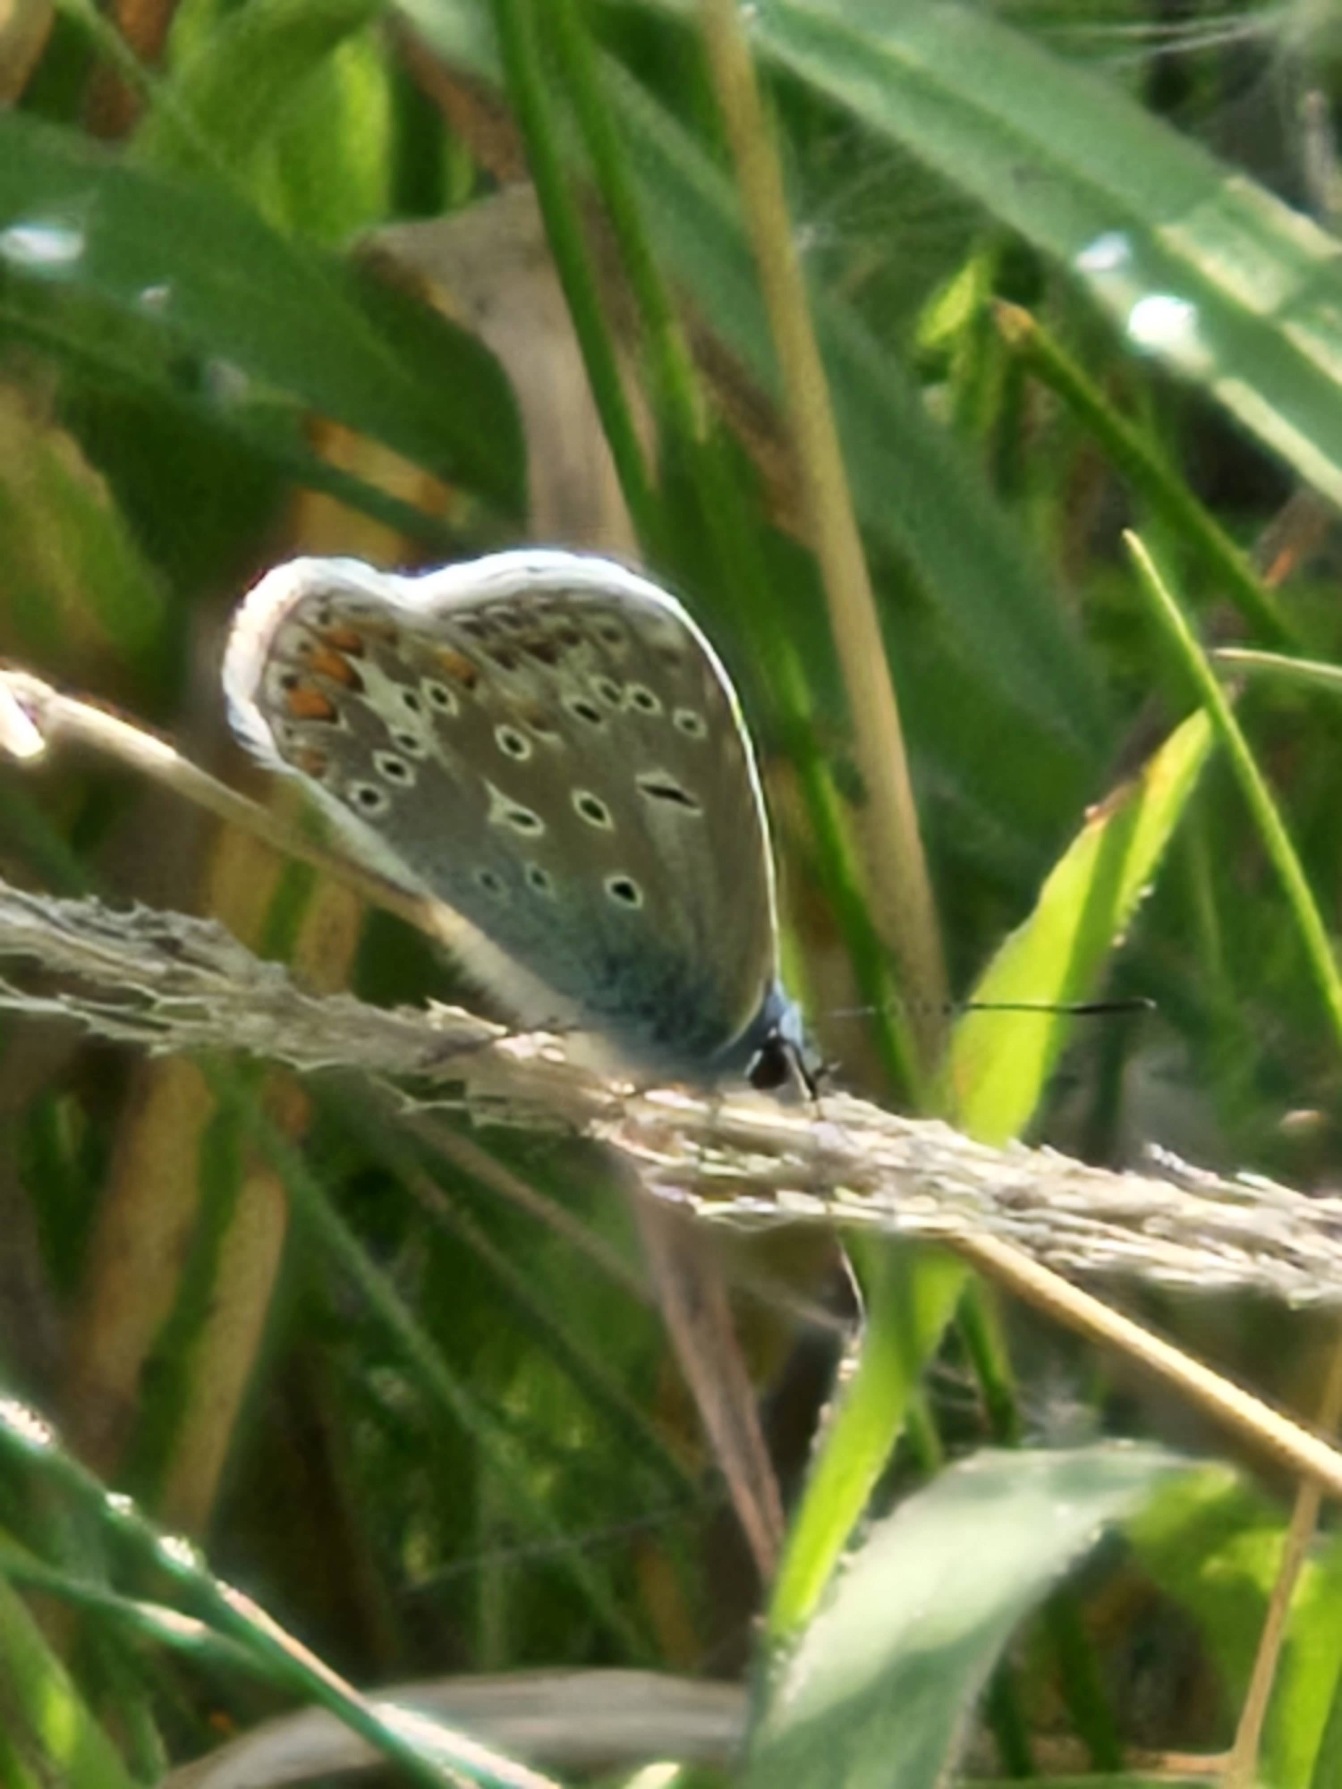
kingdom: Animalia
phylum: Arthropoda
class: Insecta
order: Lepidoptera
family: Lycaenidae
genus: Polyommatus
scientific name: Polyommatus icarus
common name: Almindelig blåfugl
